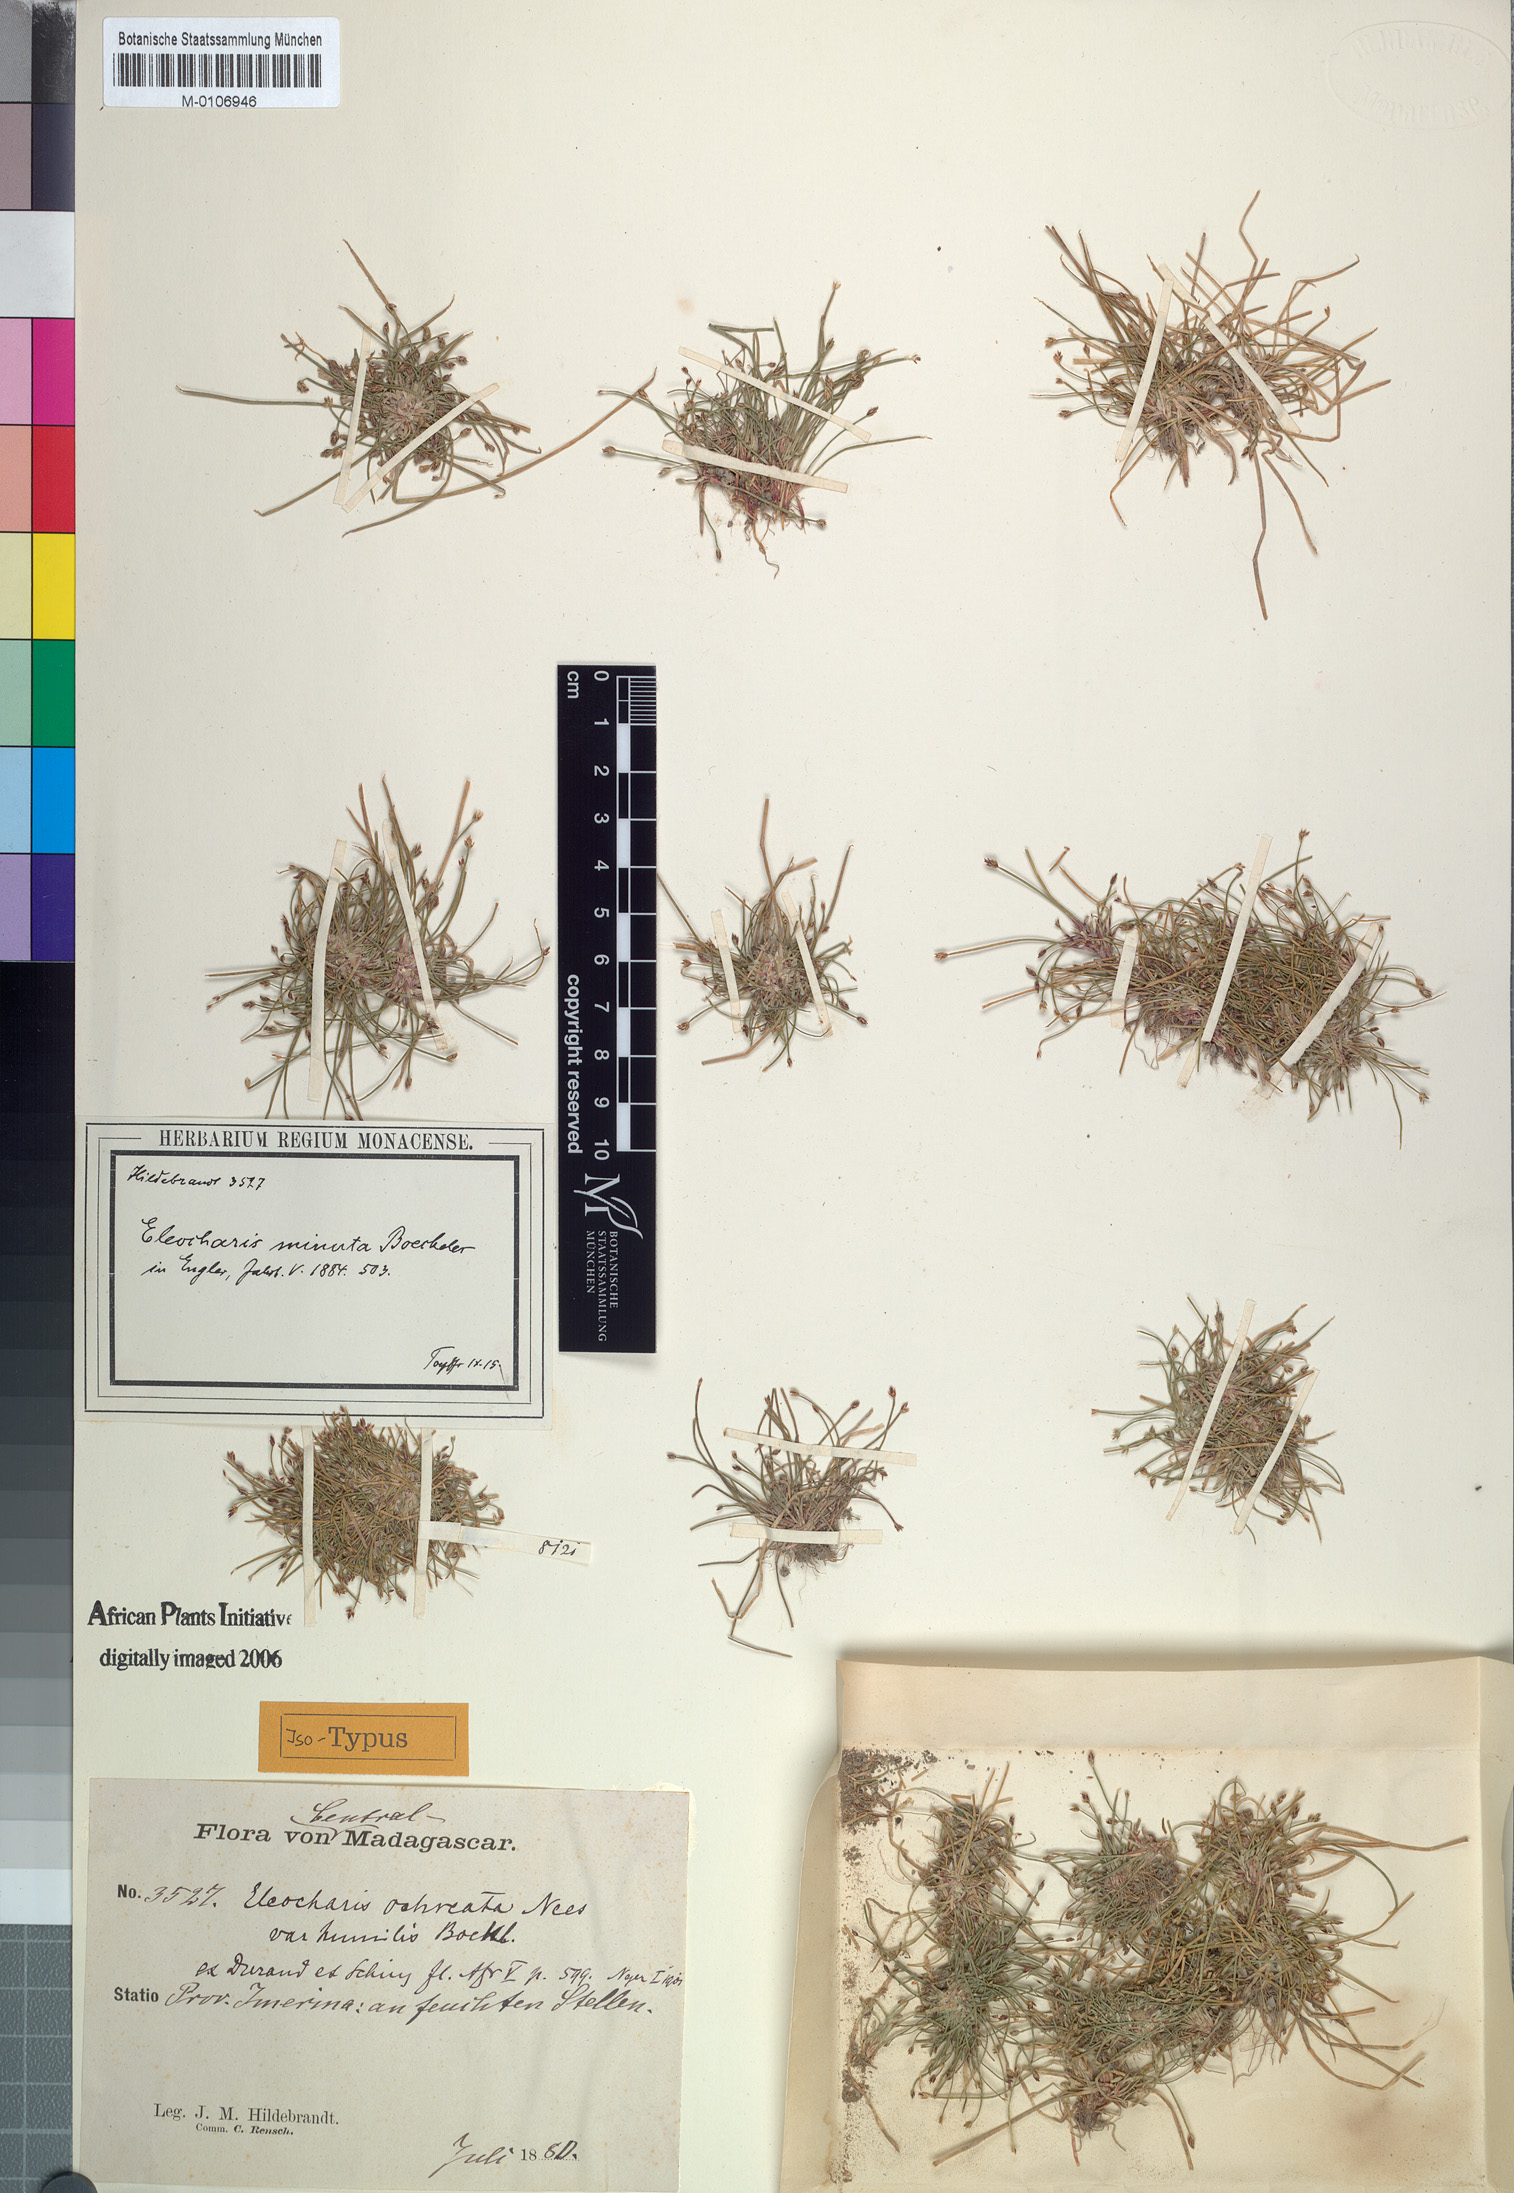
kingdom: Plantae
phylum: Tracheophyta
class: Liliopsida
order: Poales
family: Cyperaceae
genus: Eleocharis
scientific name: Eleocharis minuta
